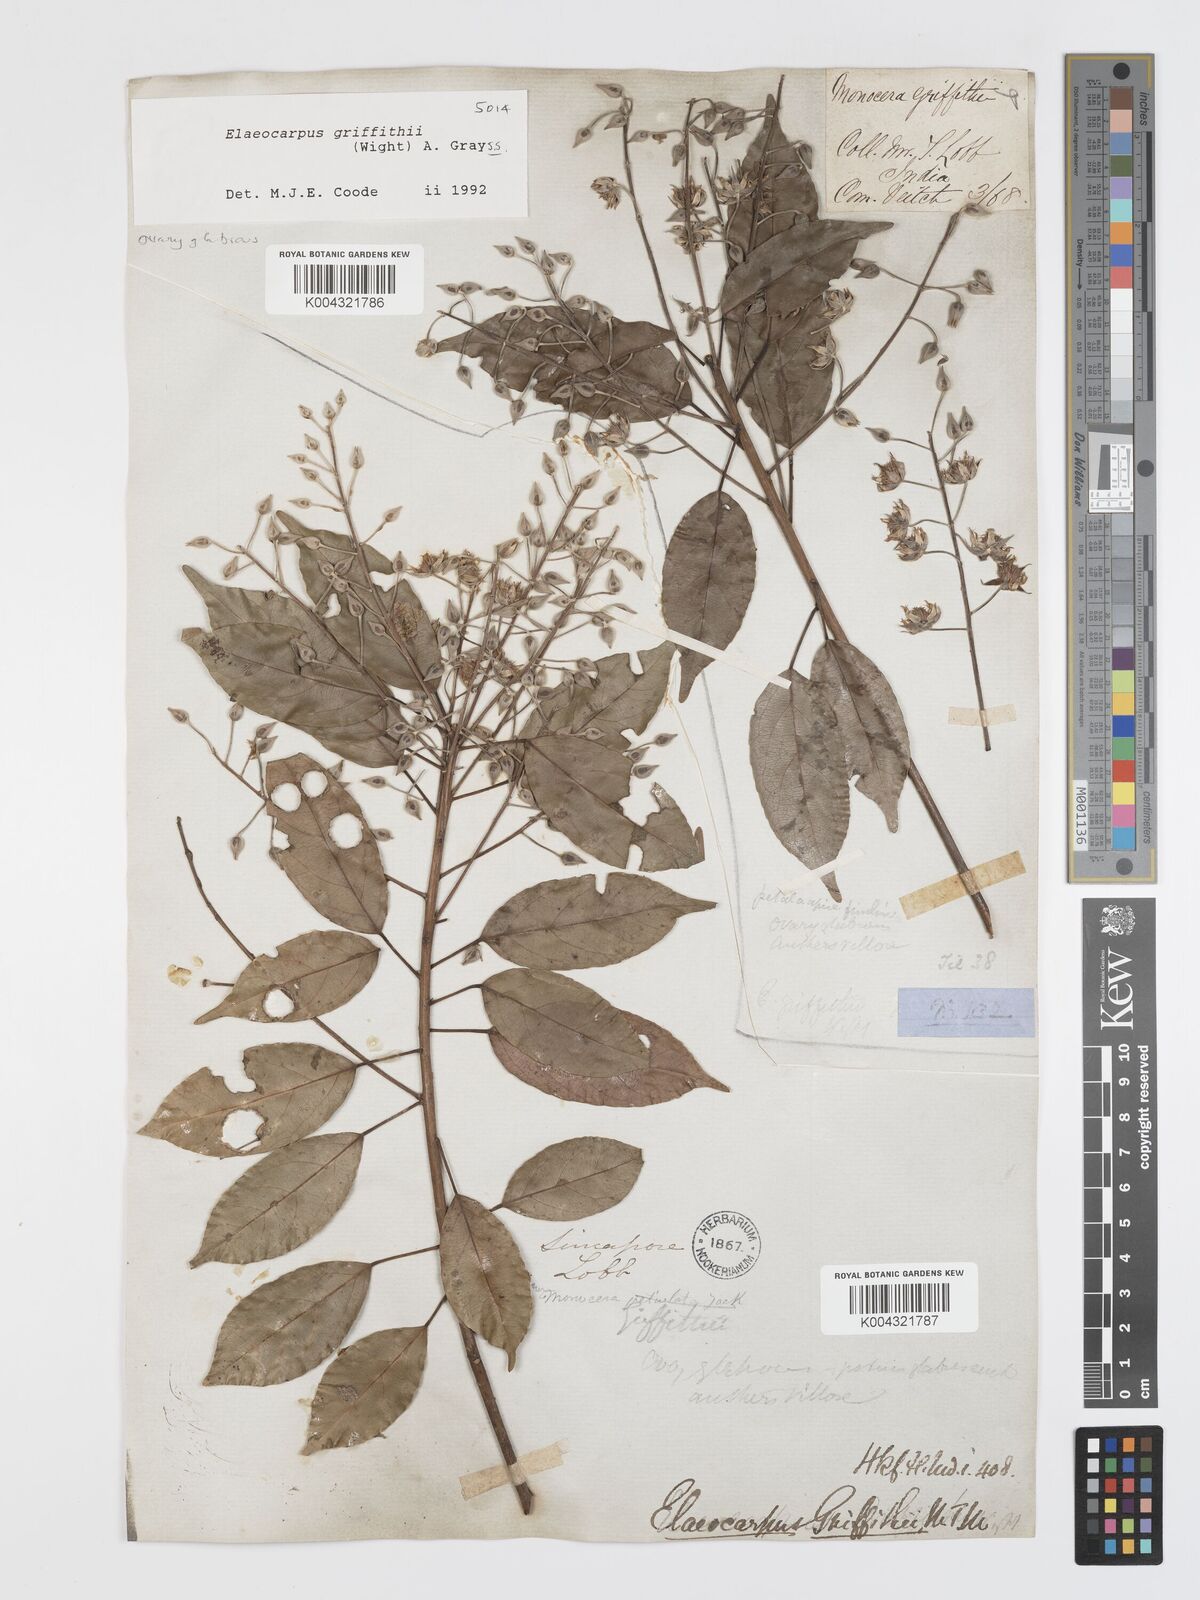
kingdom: Plantae
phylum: Tracheophyta
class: Magnoliopsida
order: Oxalidales
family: Elaeocarpaceae
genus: Elaeocarpus
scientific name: Elaeocarpus griffithii
